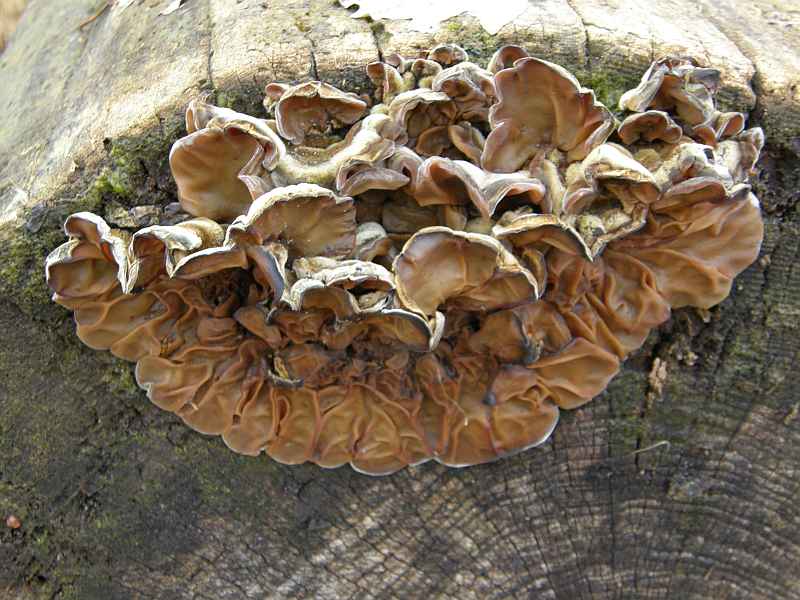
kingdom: Fungi
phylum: Basidiomycota
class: Agaricomycetes
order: Auriculariales
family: Auriculariaceae
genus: Auricularia
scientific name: Auricularia mesenterica
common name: håret judasøre
